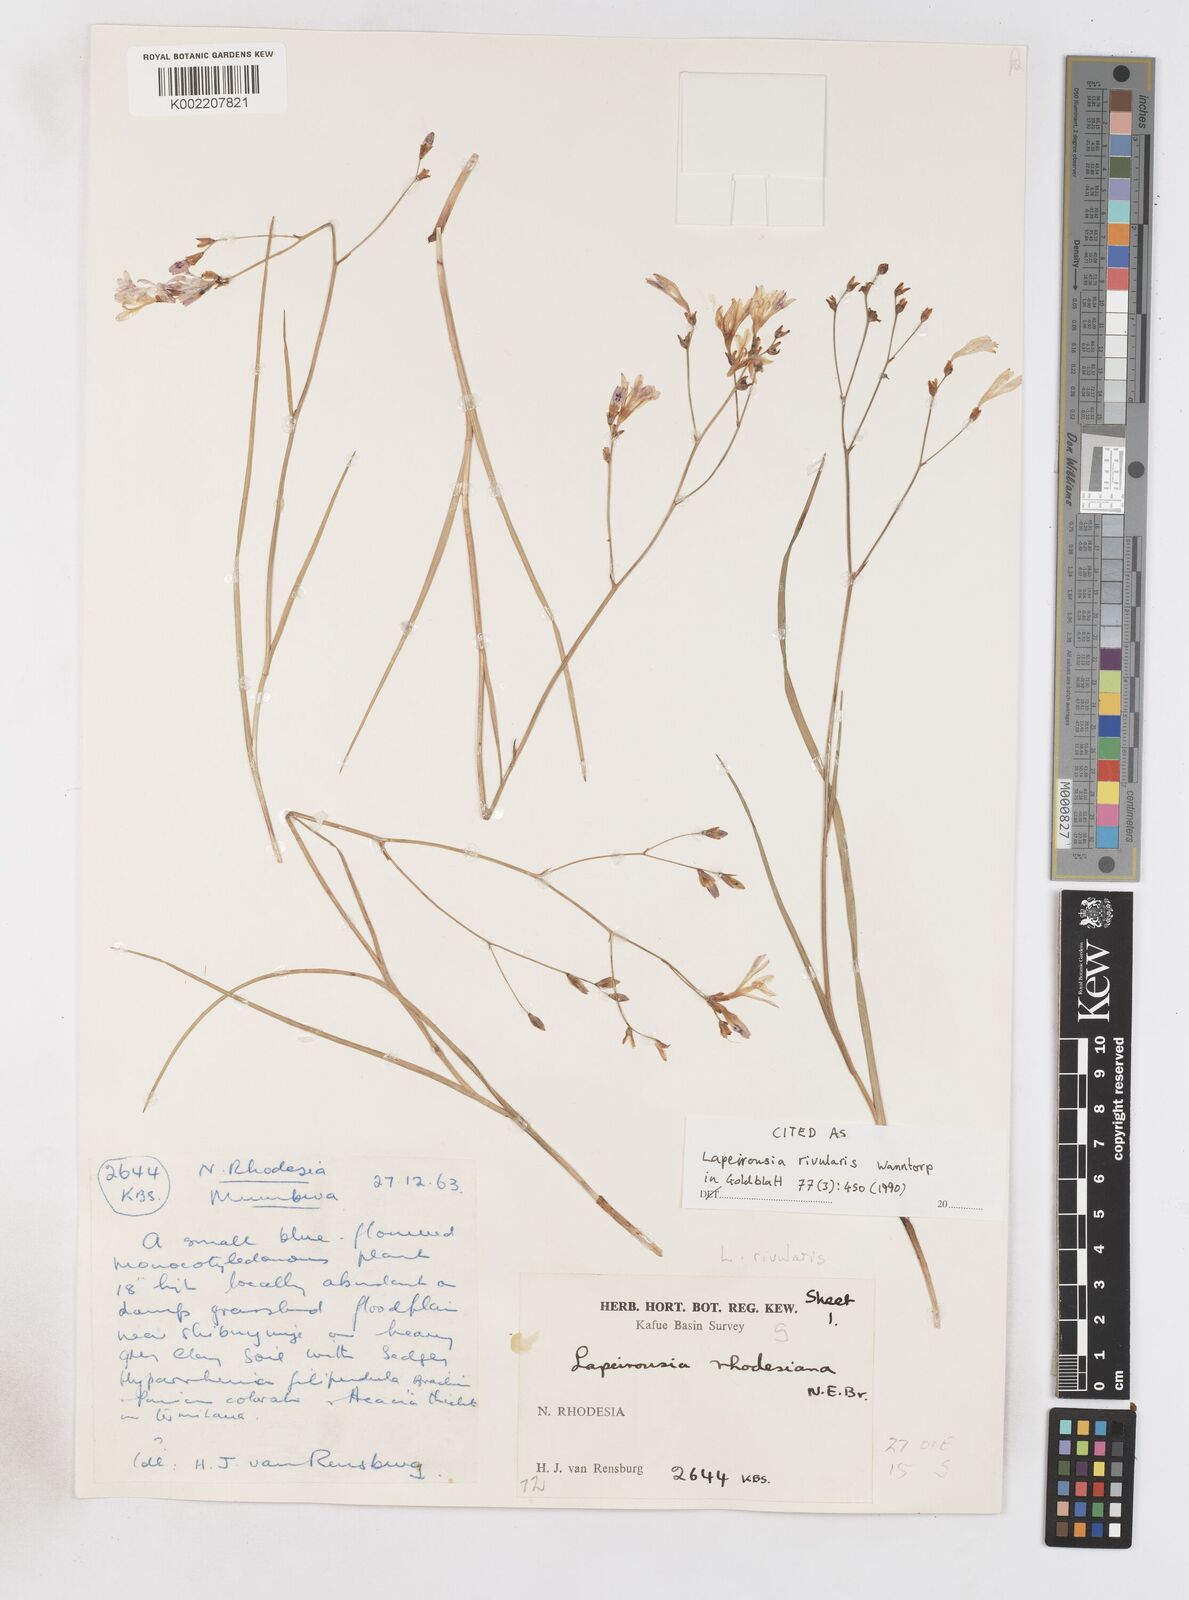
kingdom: Plantae
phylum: Tracheophyta
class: Liliopsida
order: Asparagales
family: Iridaceae
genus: Afrosolen
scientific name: Afrosolen rivularis
